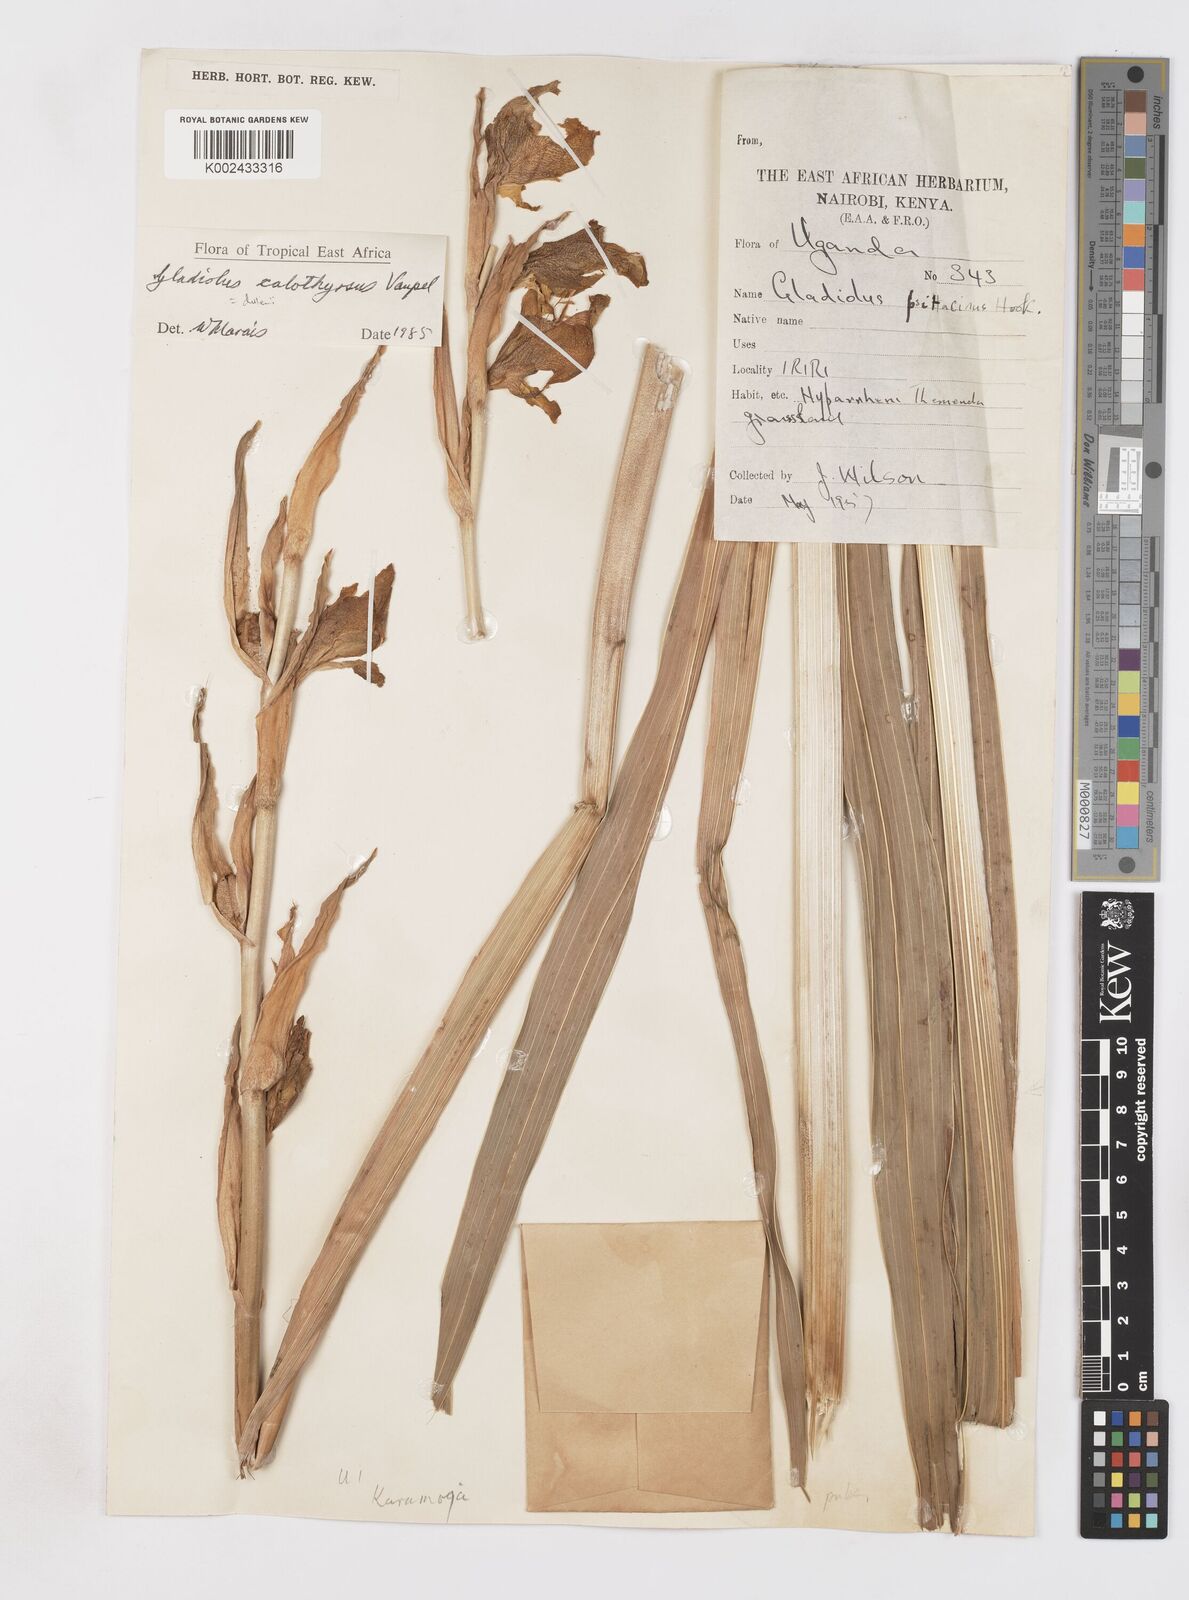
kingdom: Plantae
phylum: Tracheophyta
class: Liliopsida
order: Asparagales
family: Iridaceae
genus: Gladiolus
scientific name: Gladiolus dalenii
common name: Cornflag
